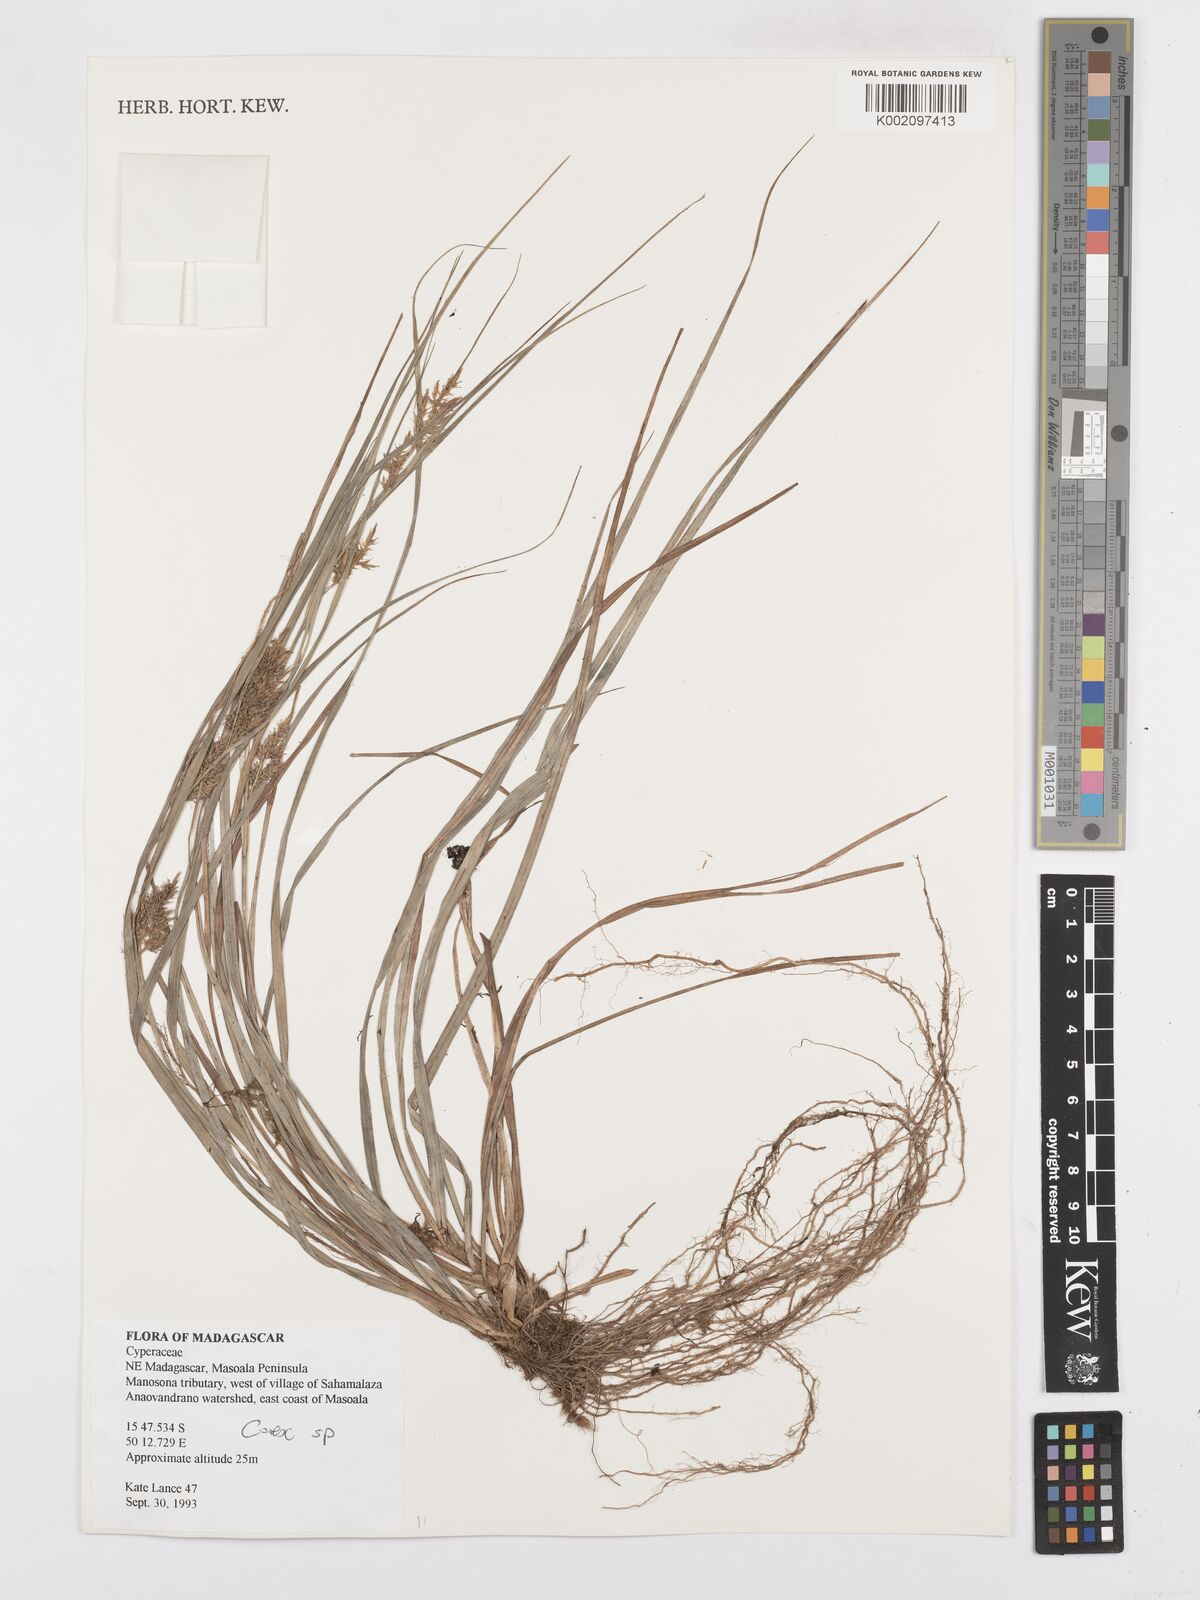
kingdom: Plantae
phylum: Tracheophyta
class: Liliopsida
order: Poales
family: Cyperaceae
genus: Carex
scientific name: Carex
